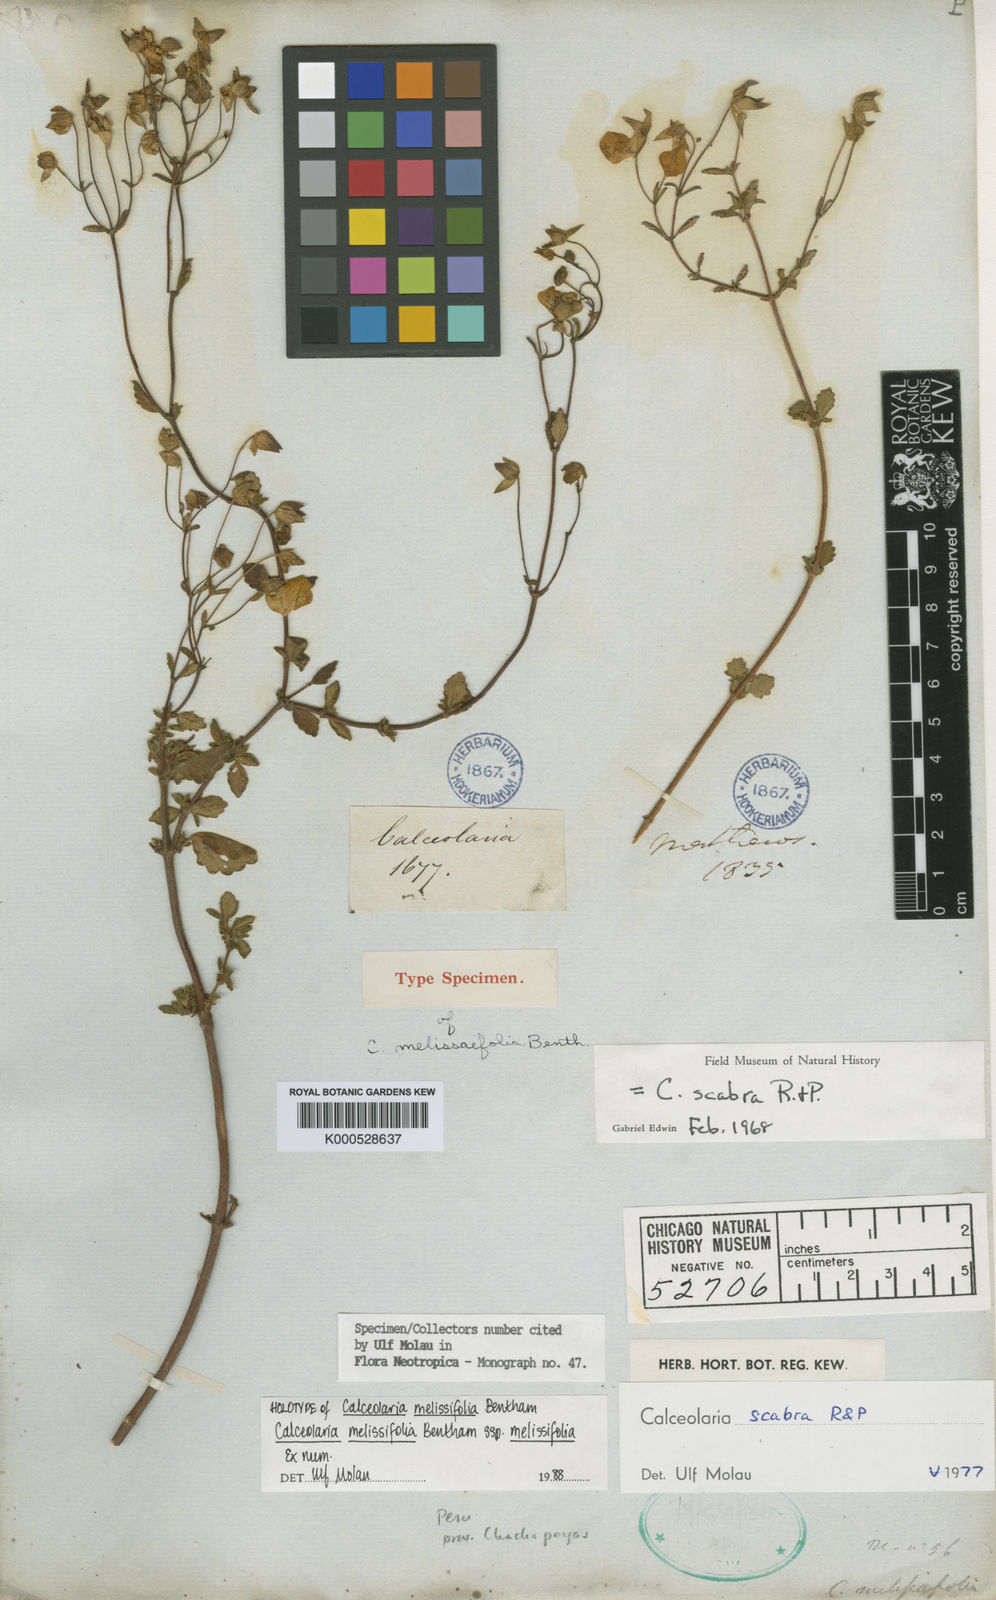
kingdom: Plantae
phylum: Tracheophyta
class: Magnoliopsida
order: Lamiales
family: Calceolariaceae
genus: Calceolaria
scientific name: Calceolaria melissifolia
